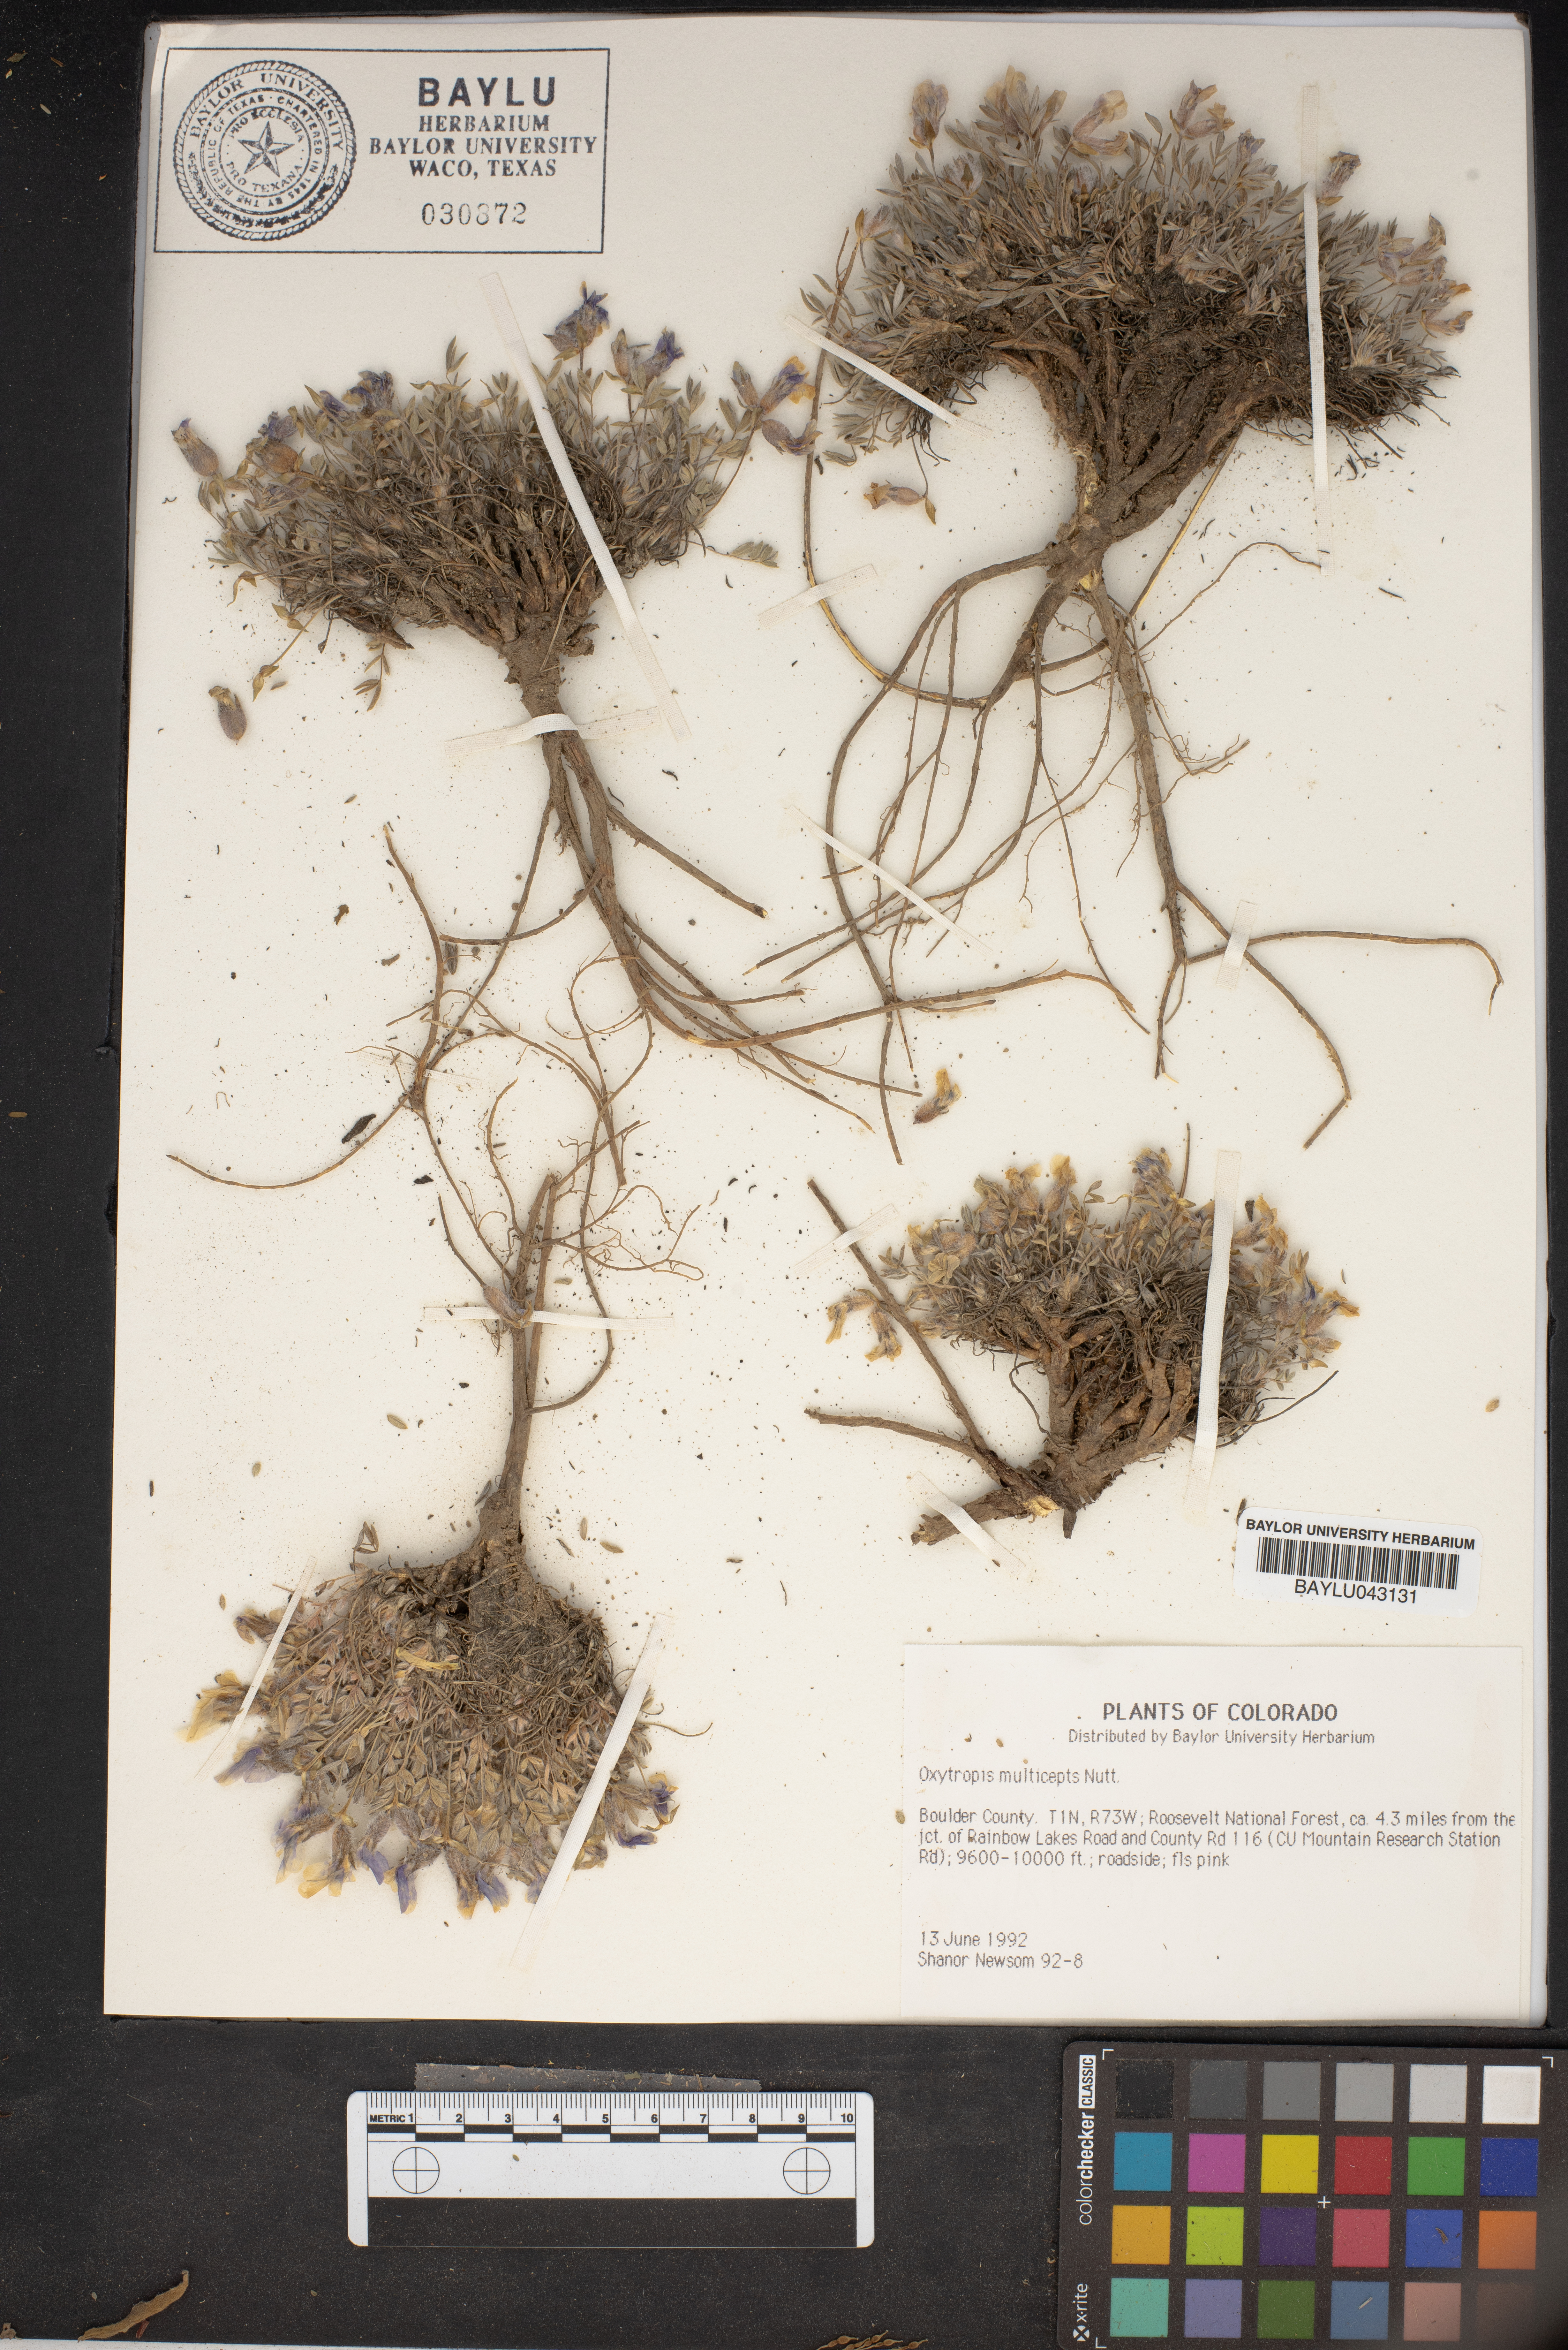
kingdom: Plantae
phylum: Tracheophyta
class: Magnoliopsida
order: Fabales
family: Fabaceae
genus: Oxytropis
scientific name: Oxytropis multiceps
